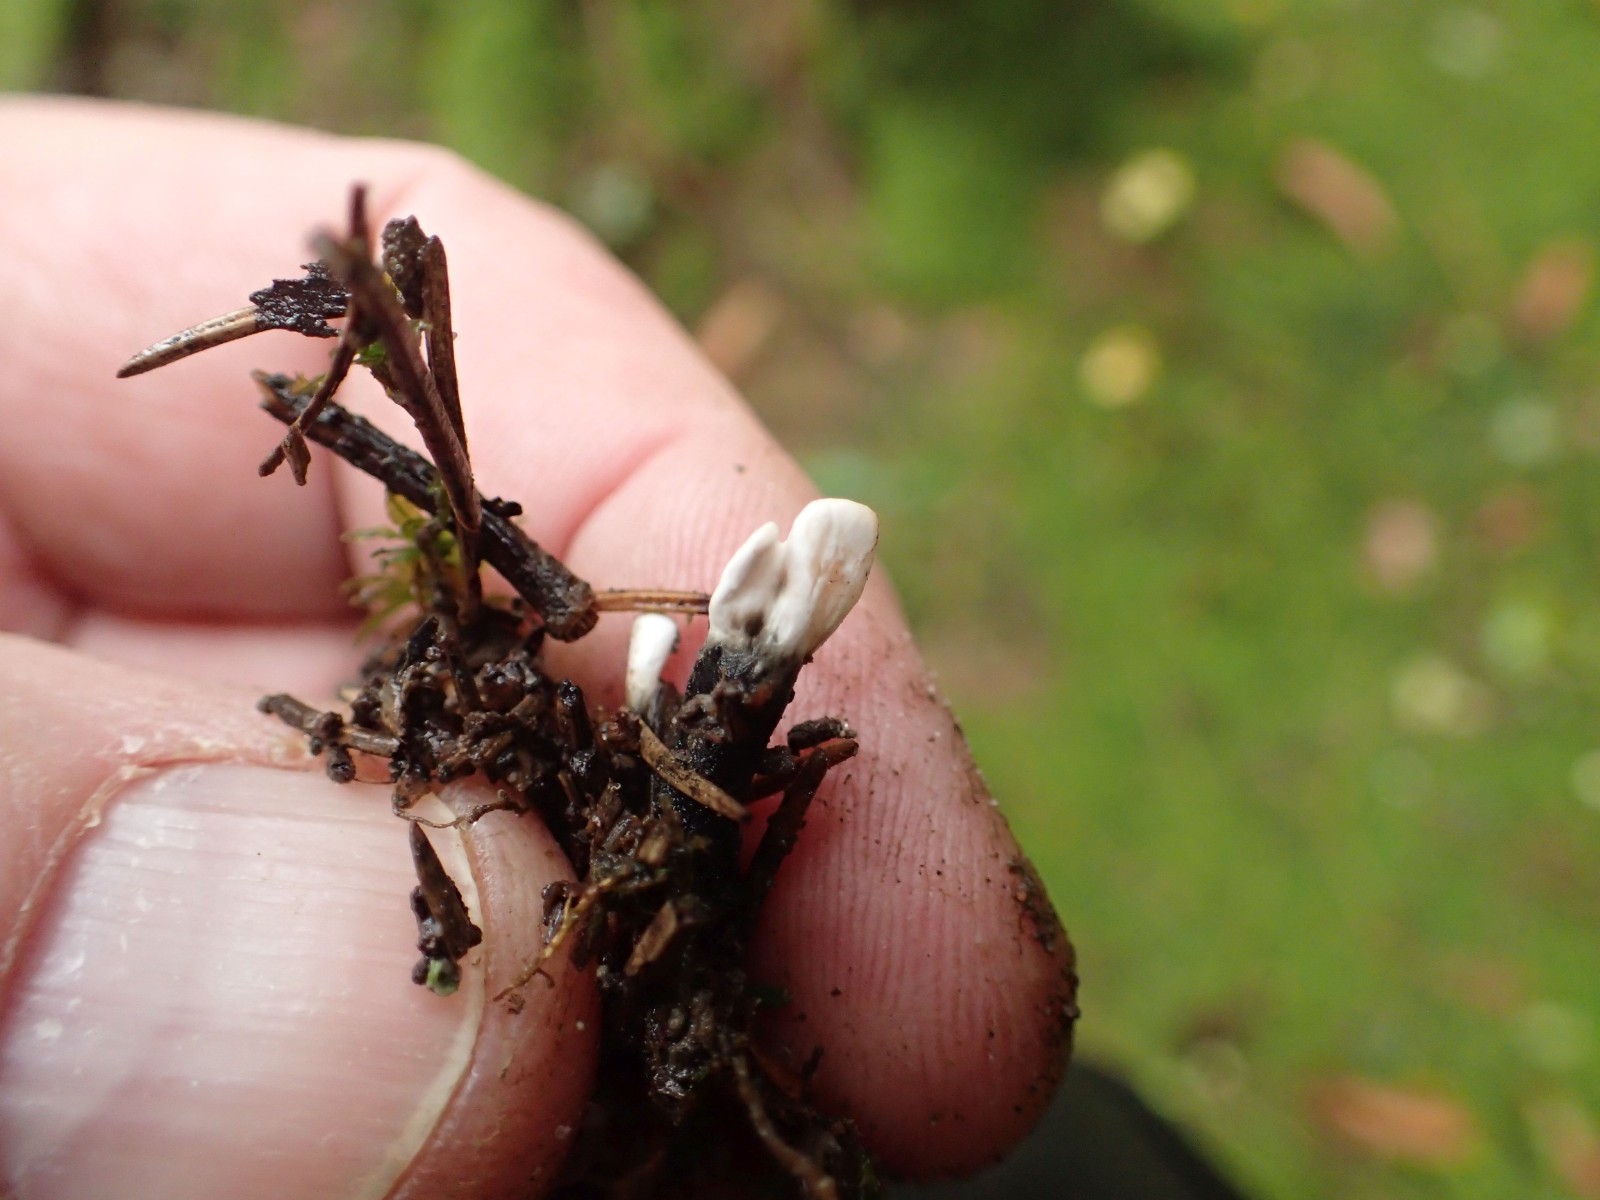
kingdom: Fungi
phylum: Ascomycota
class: Sordariomycetes
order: Xylariales
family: Xylariaceae
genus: Xylaria
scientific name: Xylaria hypoxylon
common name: grenet stødsvamp
